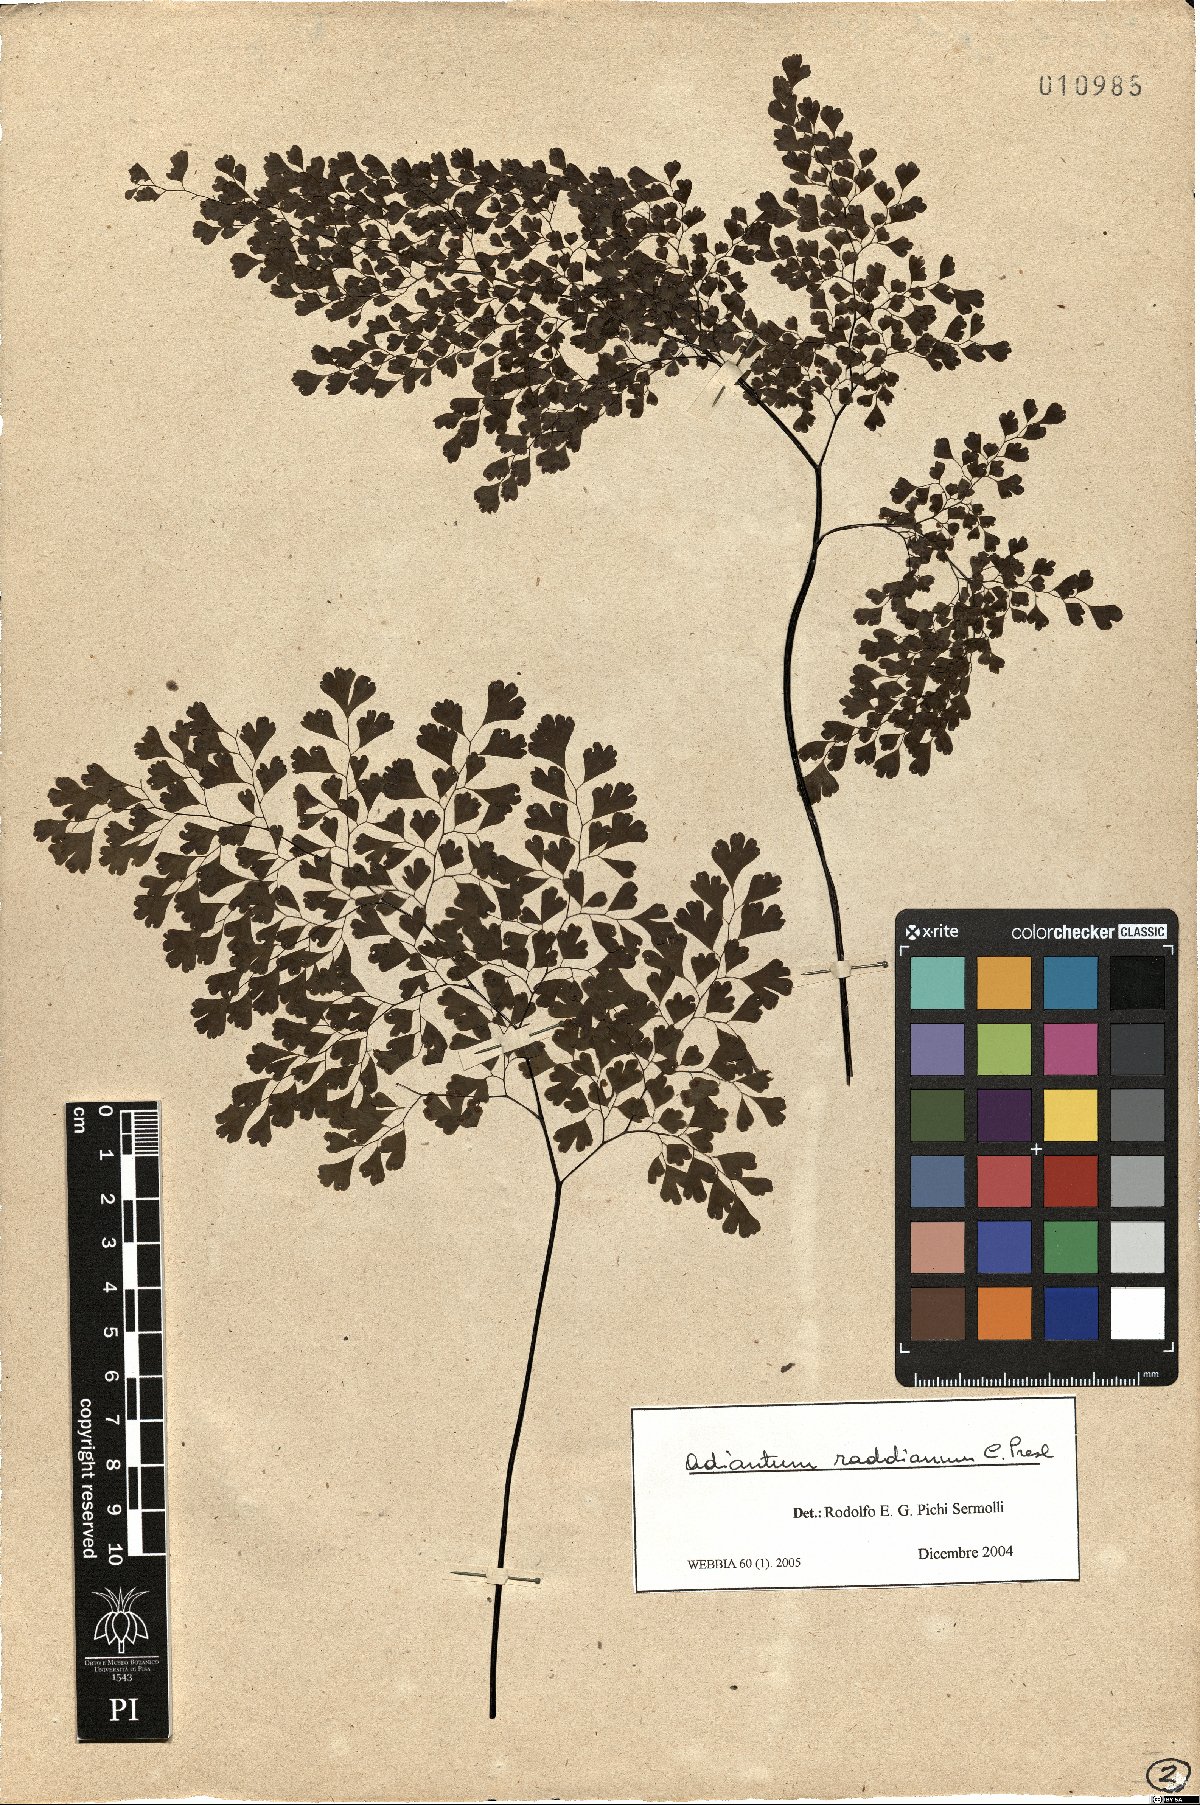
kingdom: Plantae
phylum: Tracheophyta
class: Polypodiopsida
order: Polypodiales
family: Pteridaceae
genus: Adiantum
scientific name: Adiantum raddianum
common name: Delta maidenhair fern
